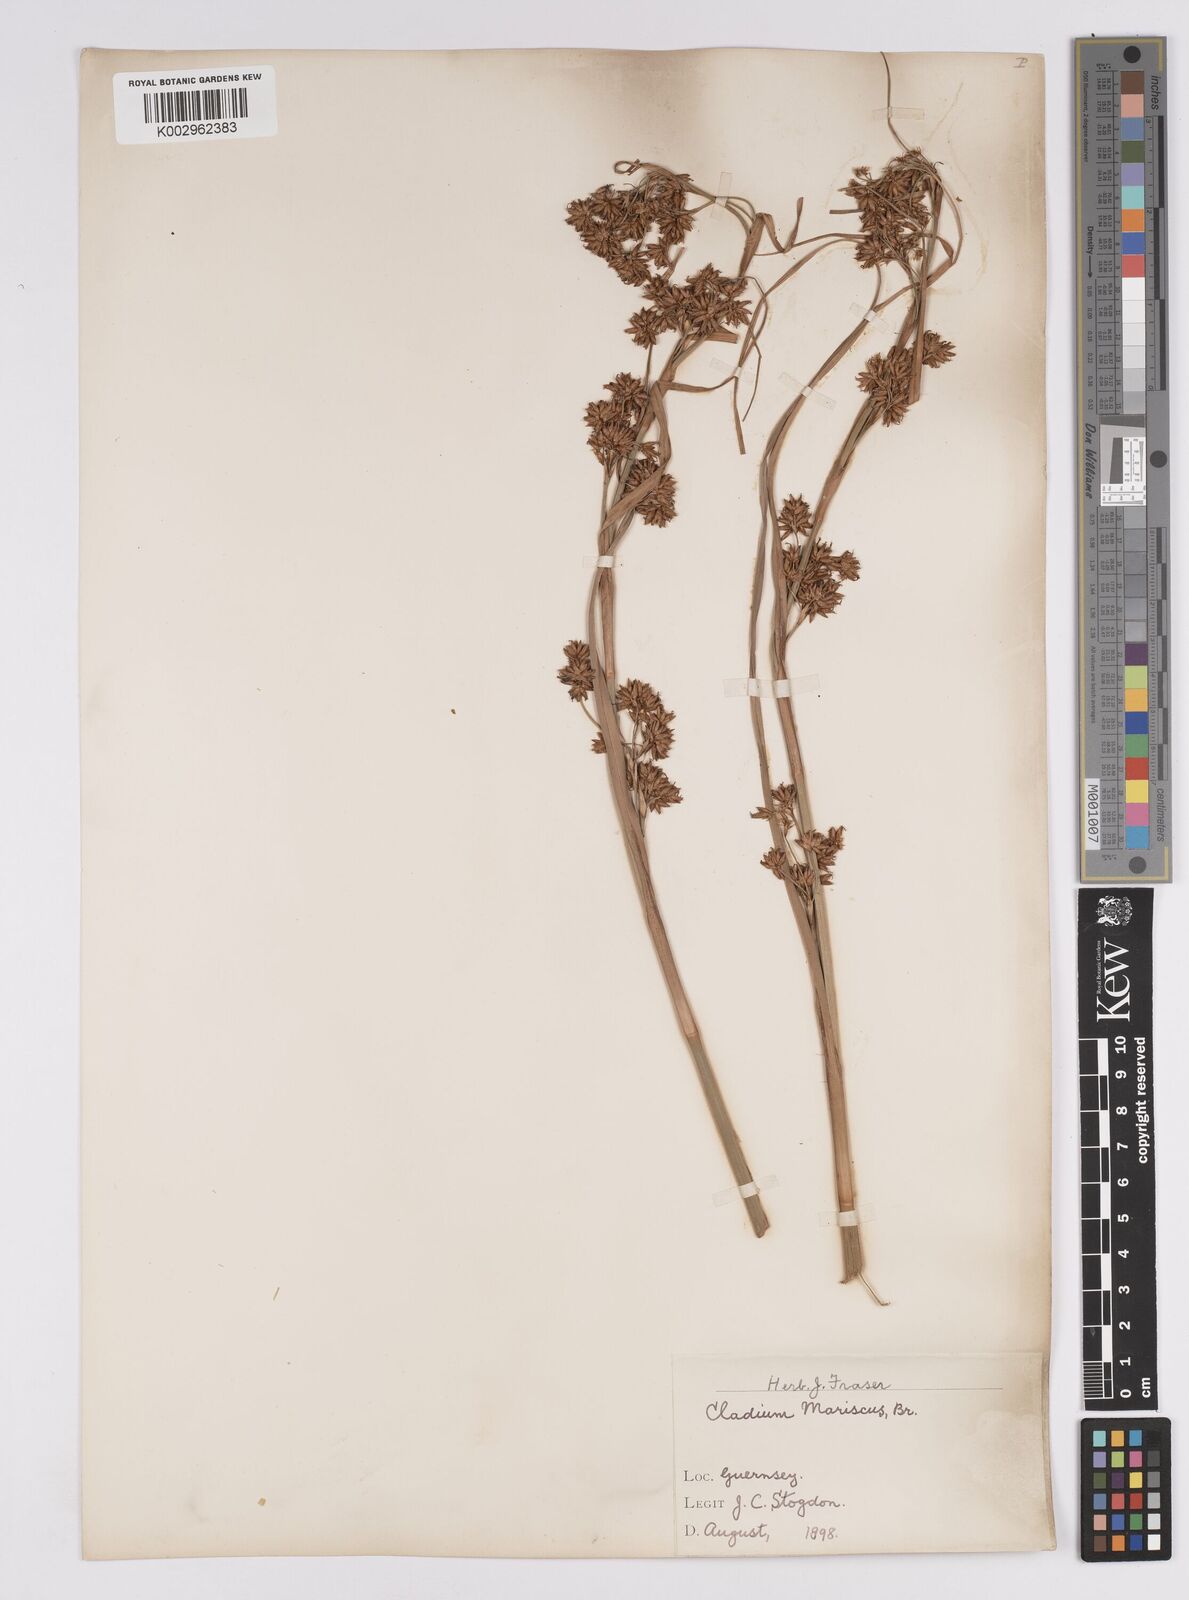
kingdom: Plantae
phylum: Tracheophyta
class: Liliopsida
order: Poales
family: Cyperaceae
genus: Cladium
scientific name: Cladium mariscus
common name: Great fen-sedge
